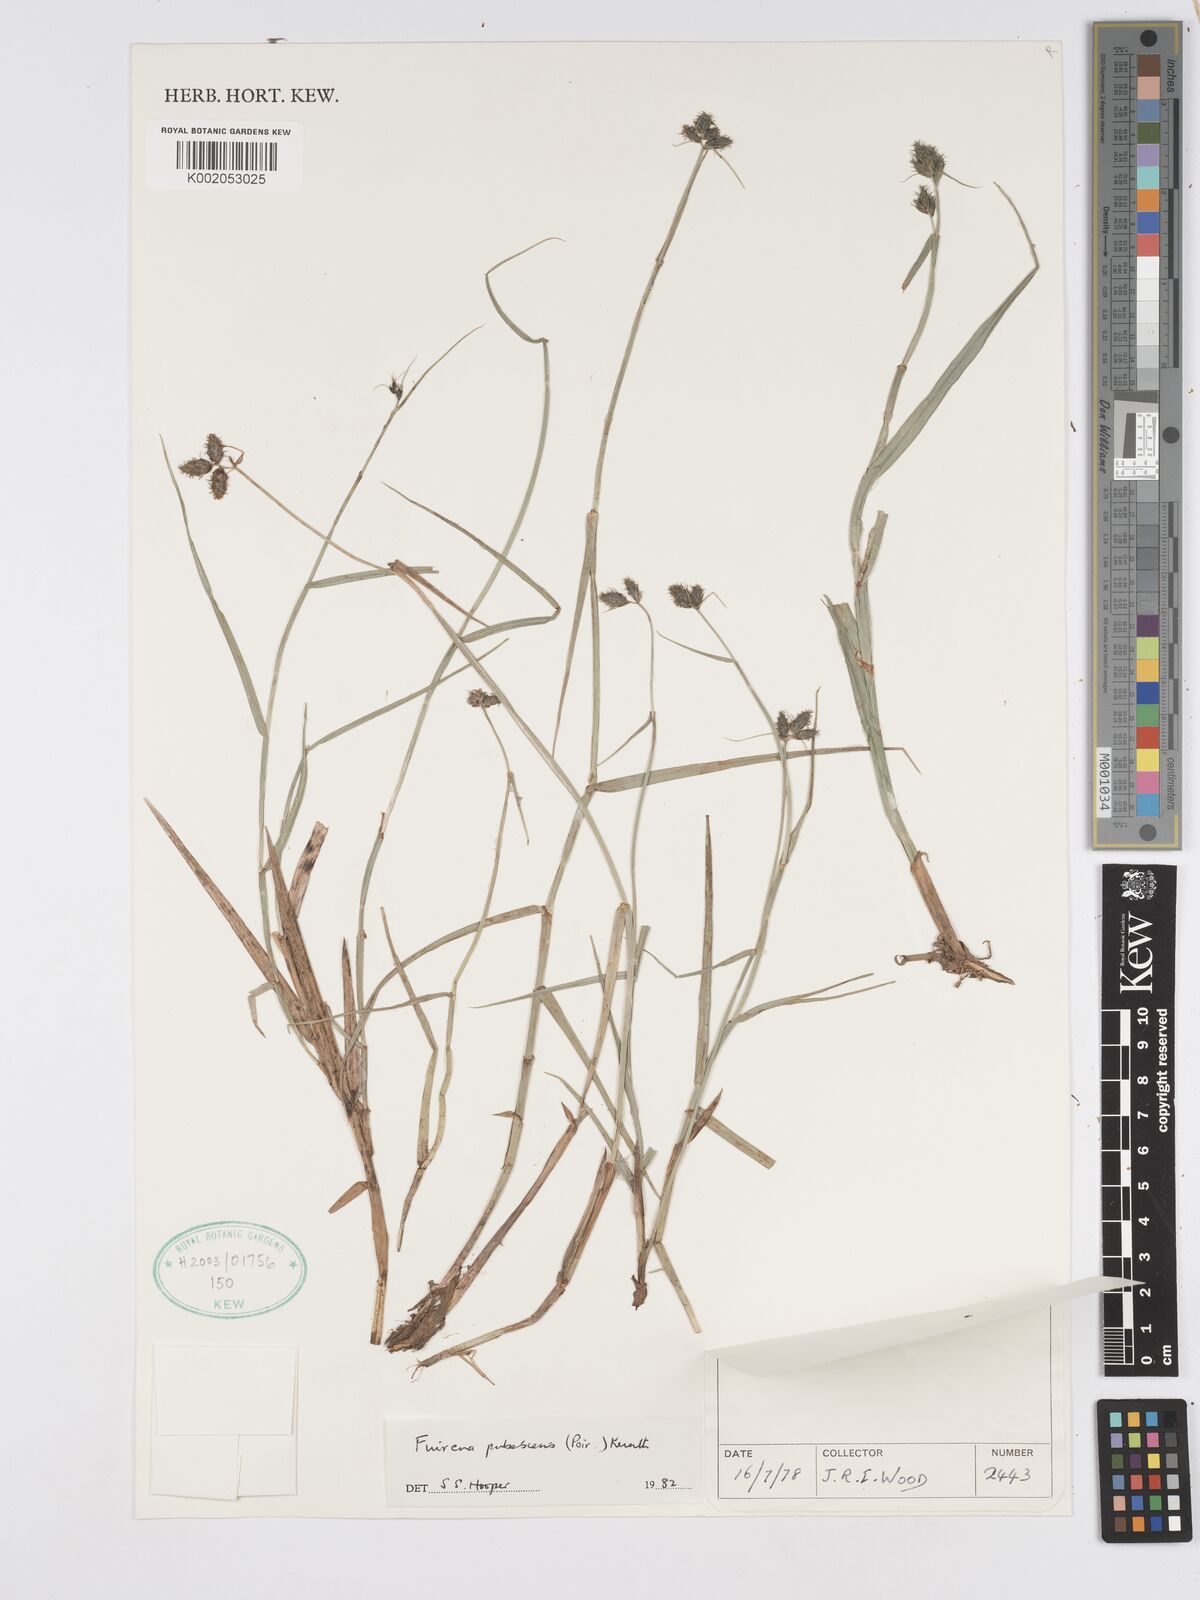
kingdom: Plantae
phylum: Tracheophyta
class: Liliopsida
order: Poales
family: Cyperaceae
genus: Fuirena
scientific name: Fuirena pubescens
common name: Hairy sedge
